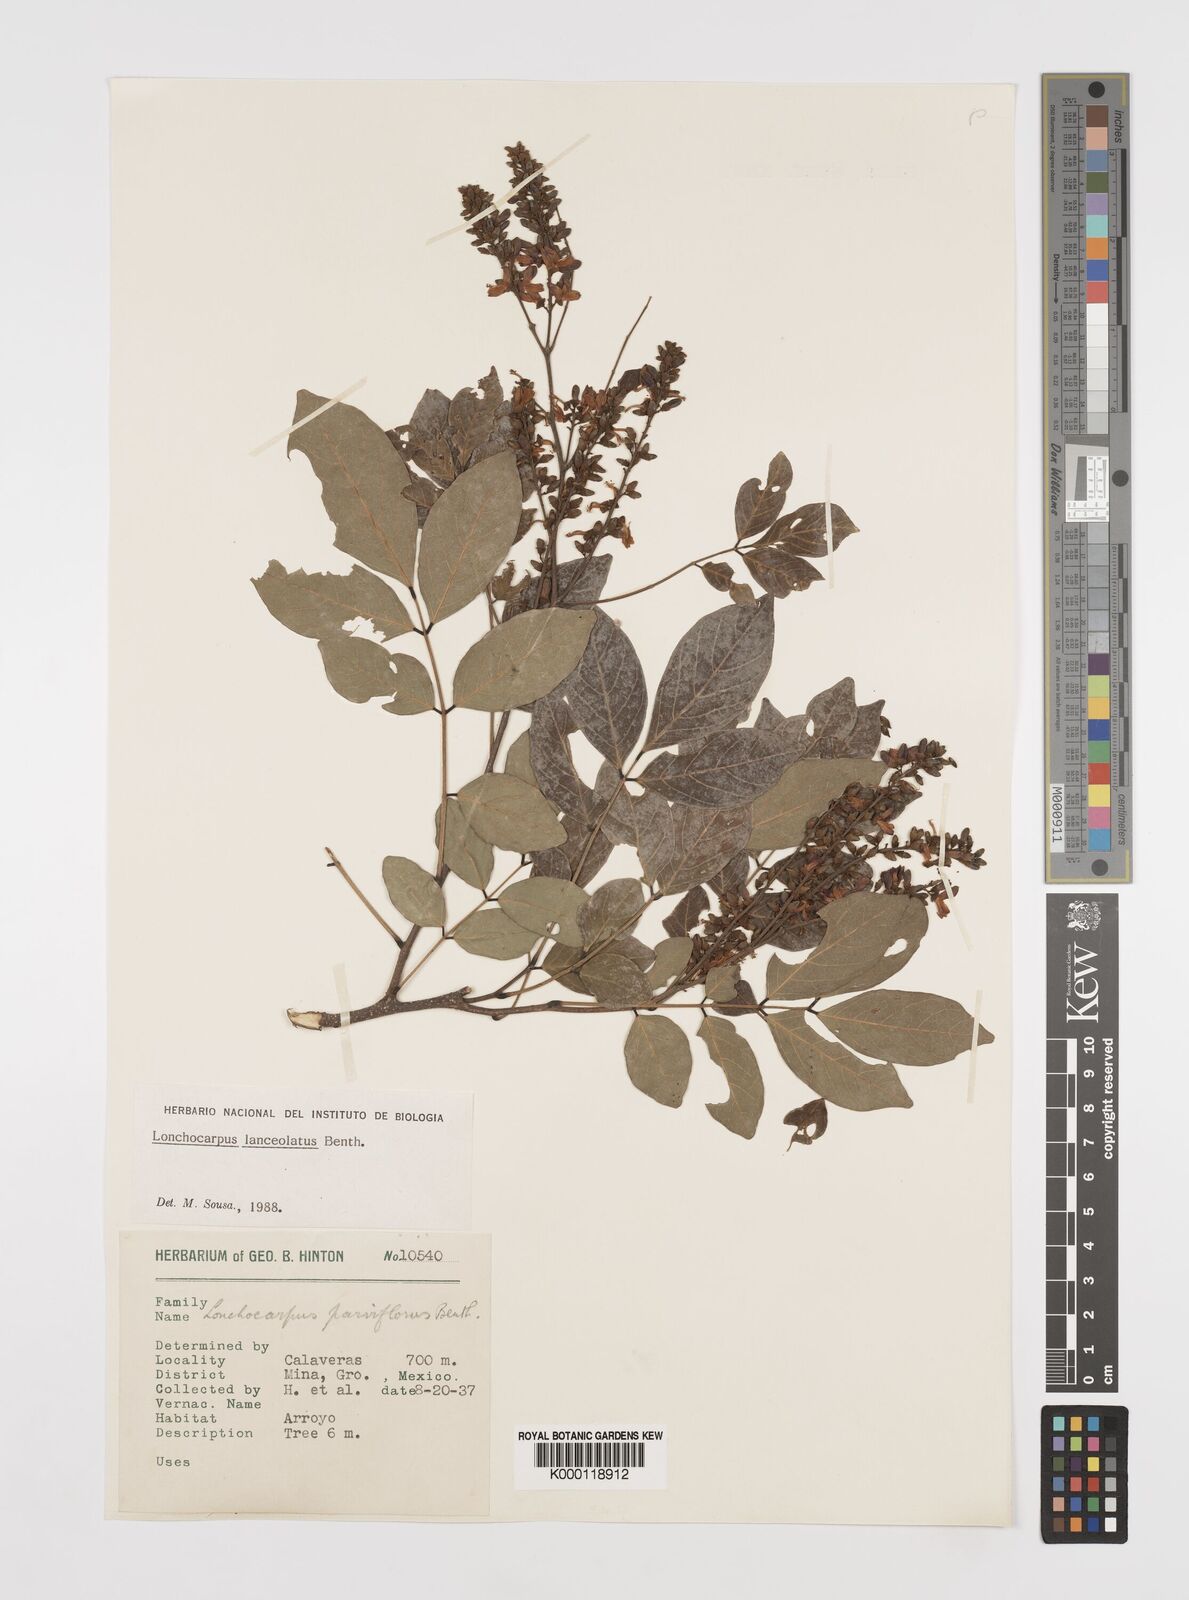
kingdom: Plantae
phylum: Tracheophyta
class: Magnoliopsida
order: Fabales
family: Fabaceae
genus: Lonchocarpus
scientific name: Lonchocarpus lanceolatus
